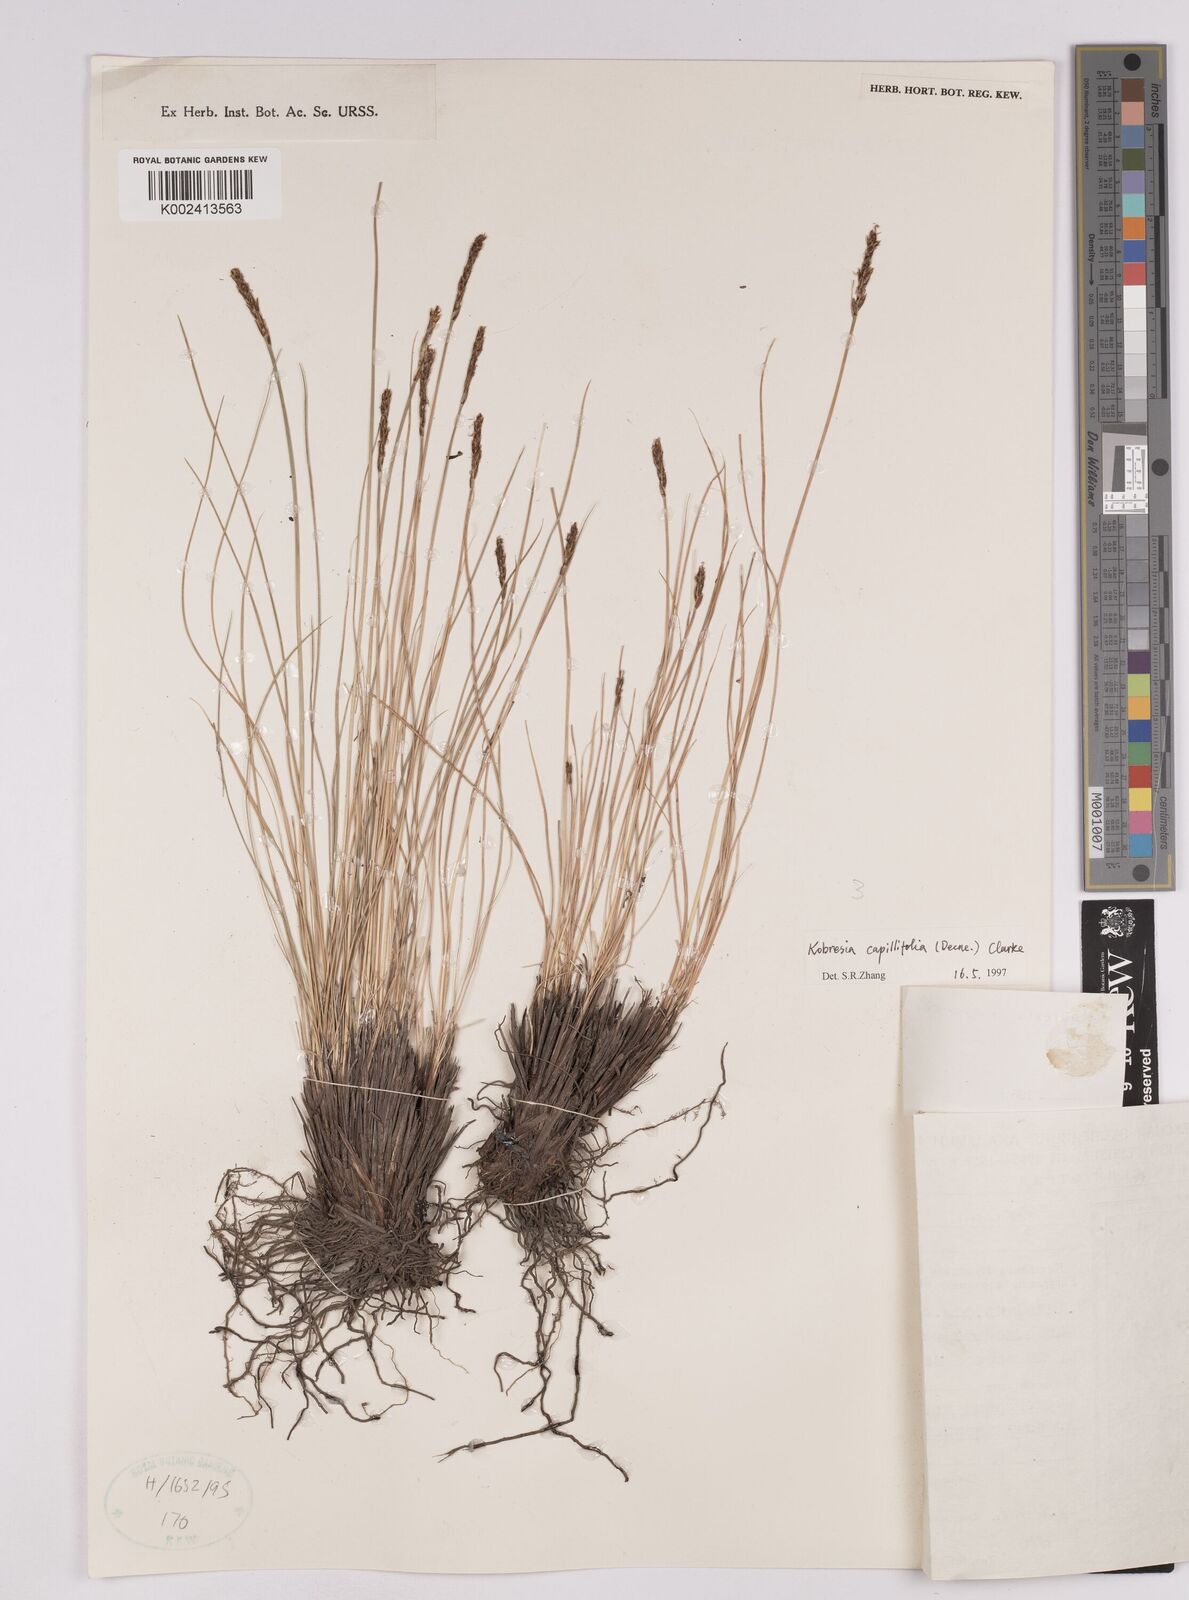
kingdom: Plantae
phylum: Tracheophyta
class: Liliopsida
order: Poales
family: Cyperaceae
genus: Carex
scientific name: Carex capillifolia
